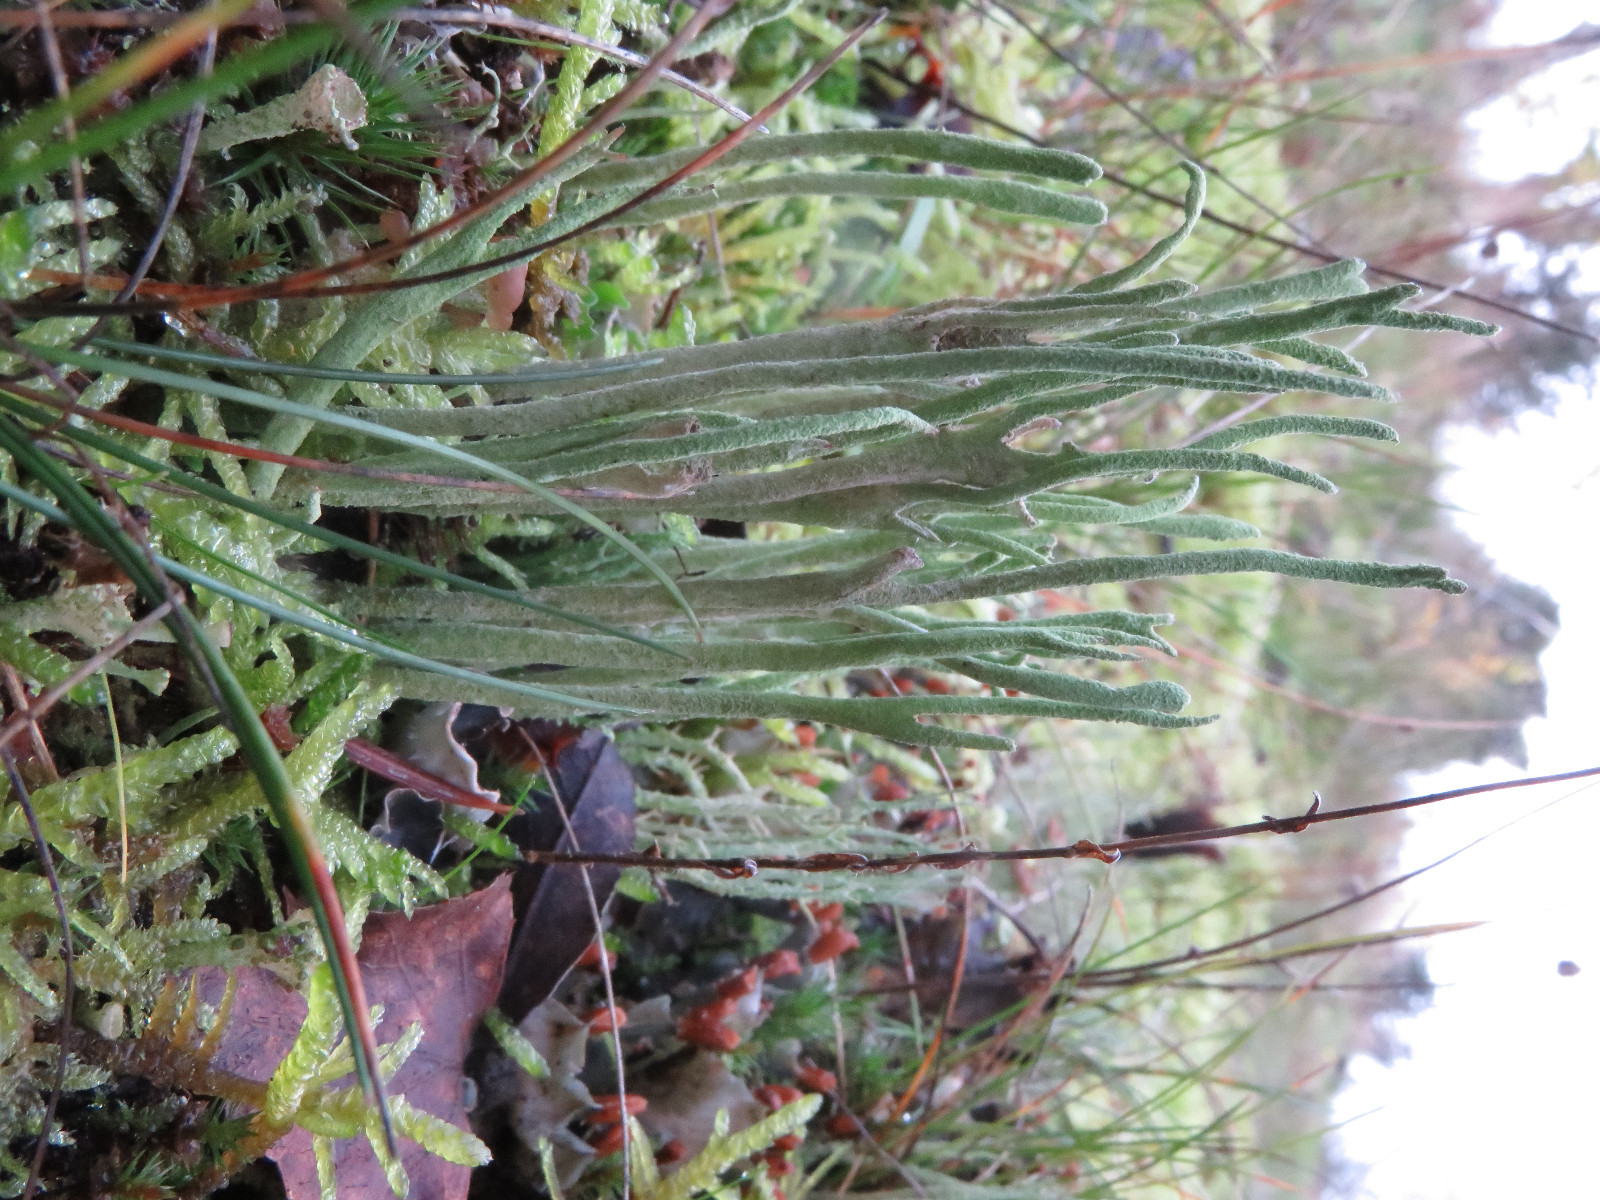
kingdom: Fungi
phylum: Ascomycota
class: Lecanoromycetes
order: Lecanorales
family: Cladoniaceae
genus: Cladonia
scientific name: Cladonia subulata
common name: spids bægerlav
